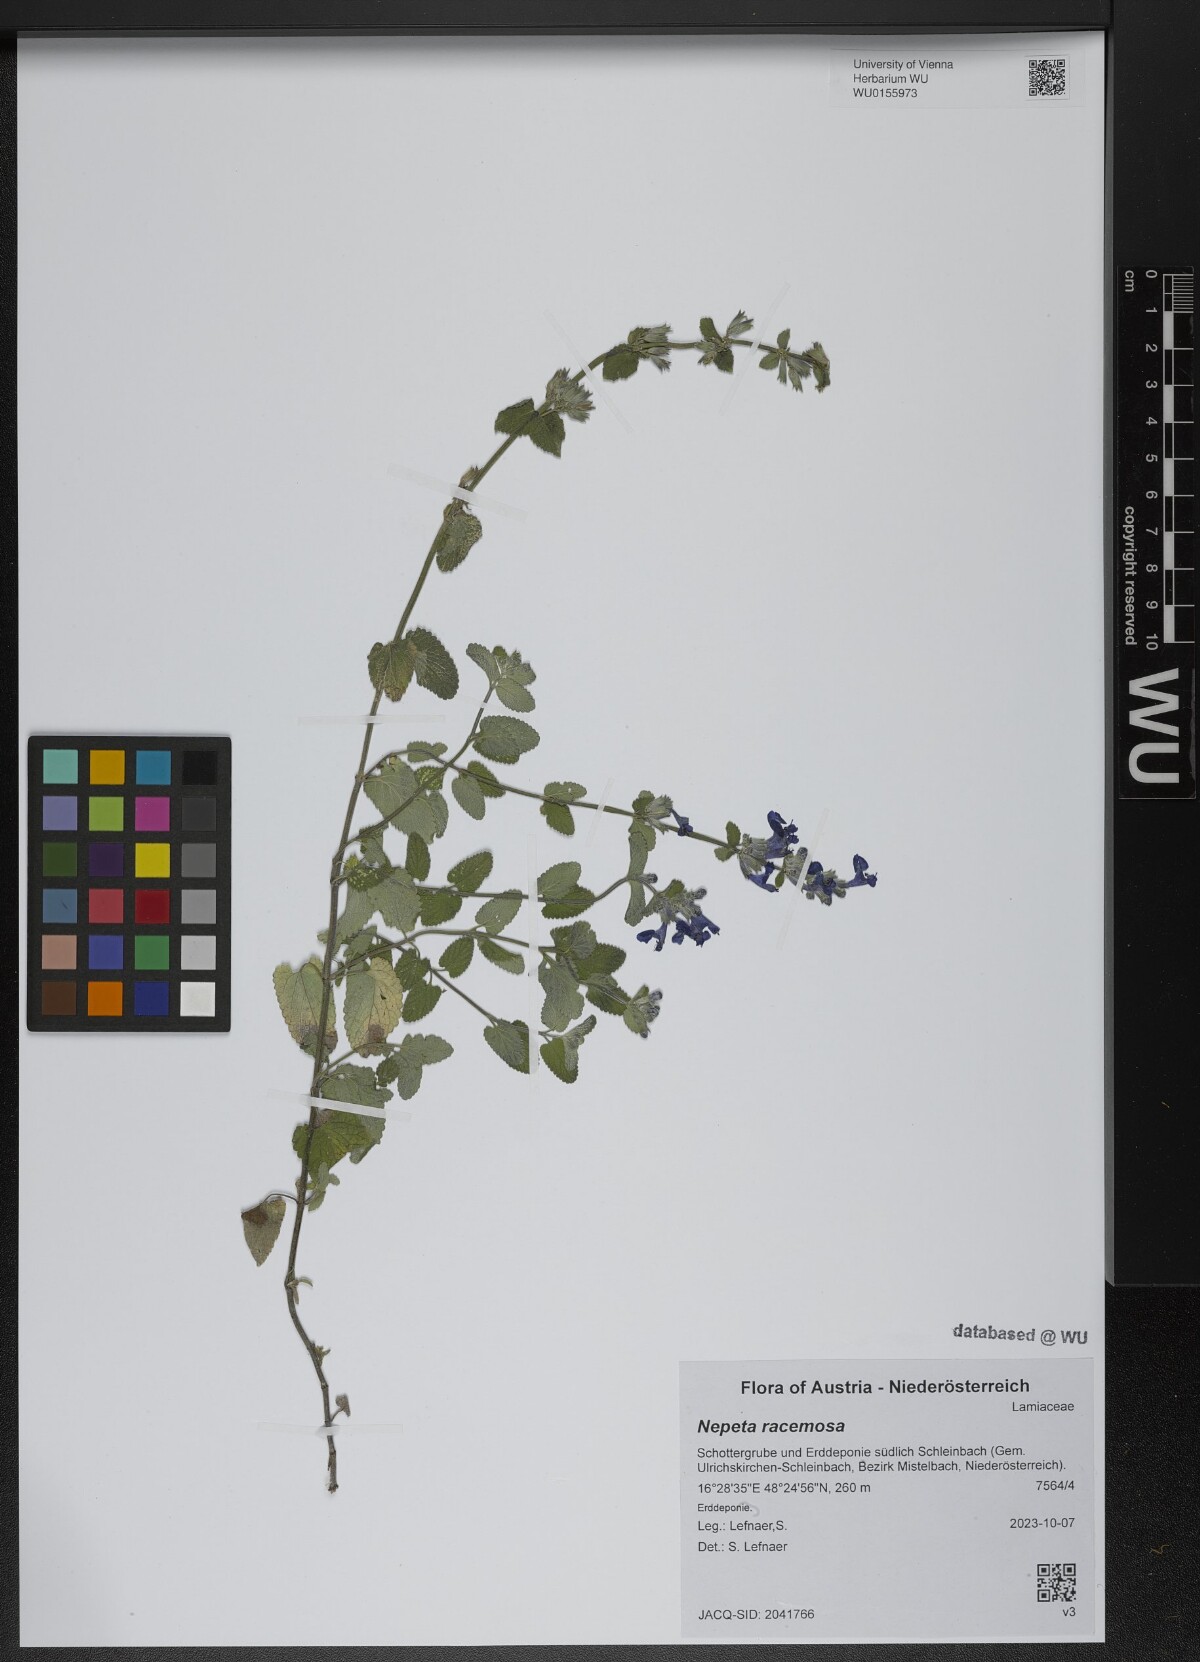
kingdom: Plantae
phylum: Tracheophyta
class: Magnoliopsida
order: Lamiales
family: Lamiaceae
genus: Nepeta
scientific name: Nepeta racemosa
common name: Raceme catnip
